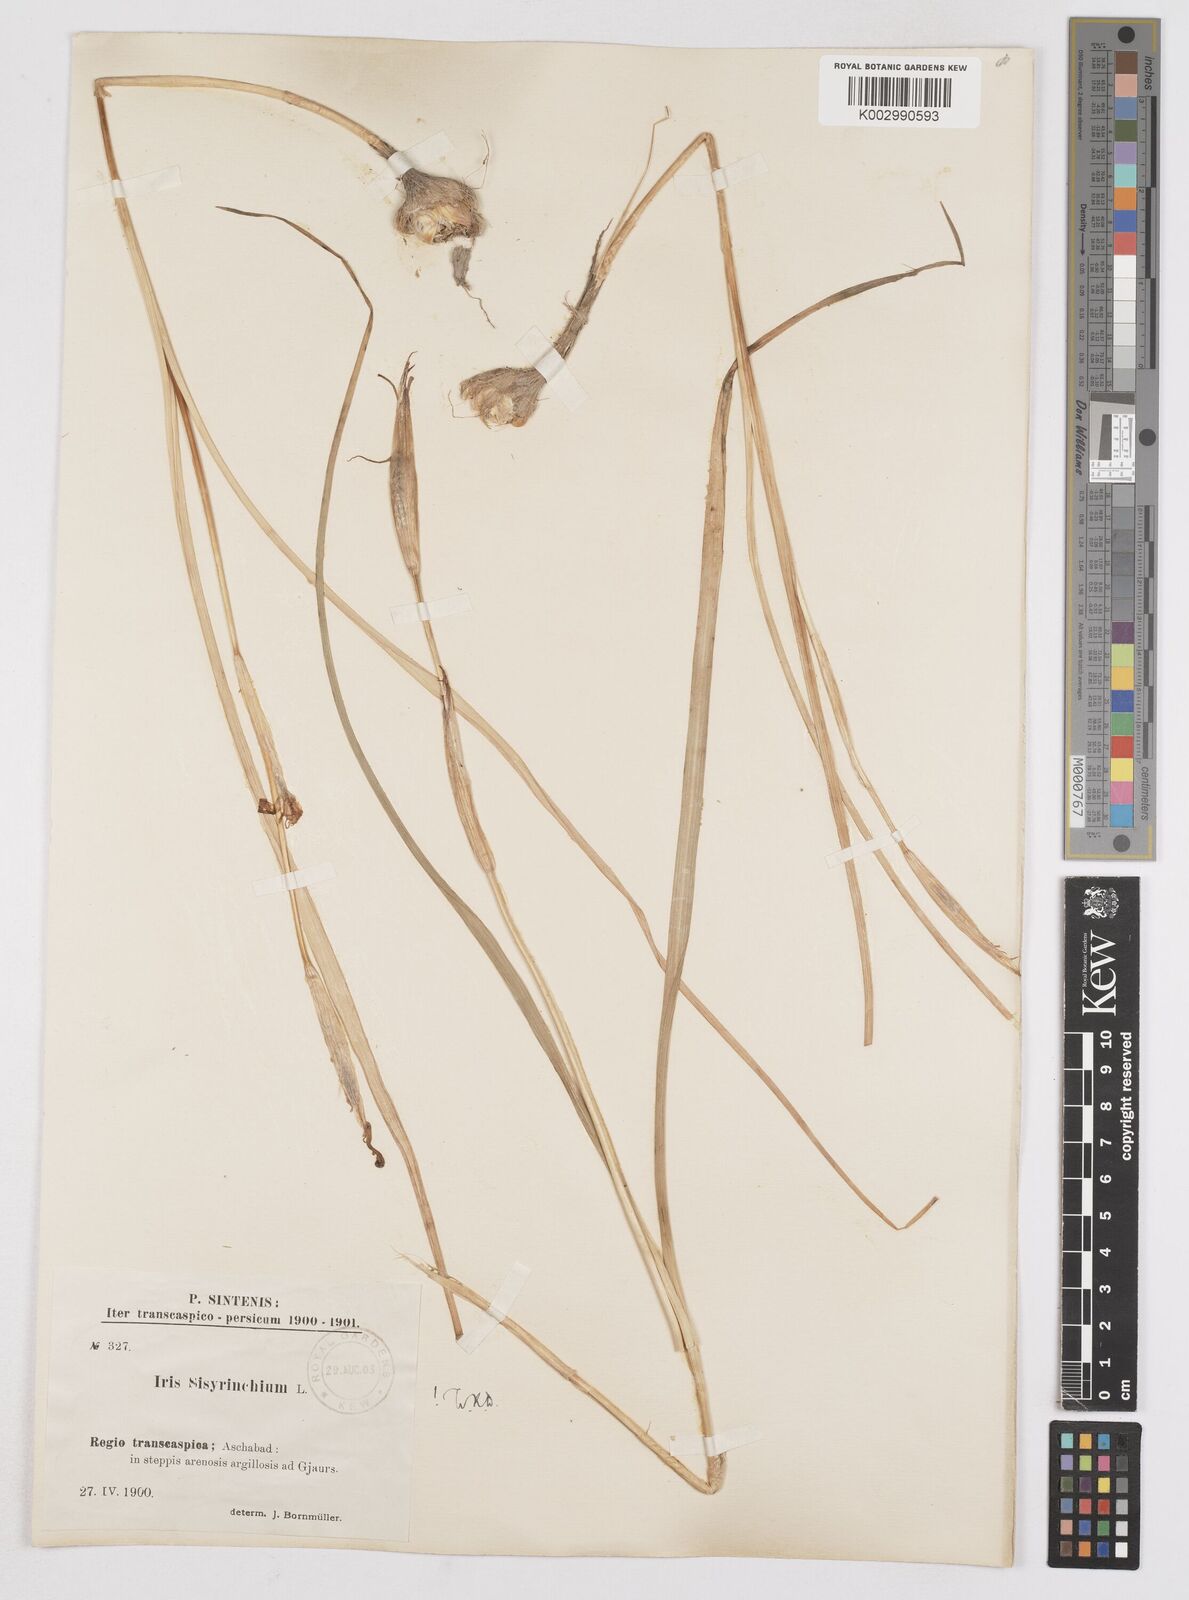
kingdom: Plantae
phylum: Tracheophyta
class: Liliopsida
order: Asparagales
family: Iridaceae
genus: Moraea
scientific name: Moraea sisyrinchium
